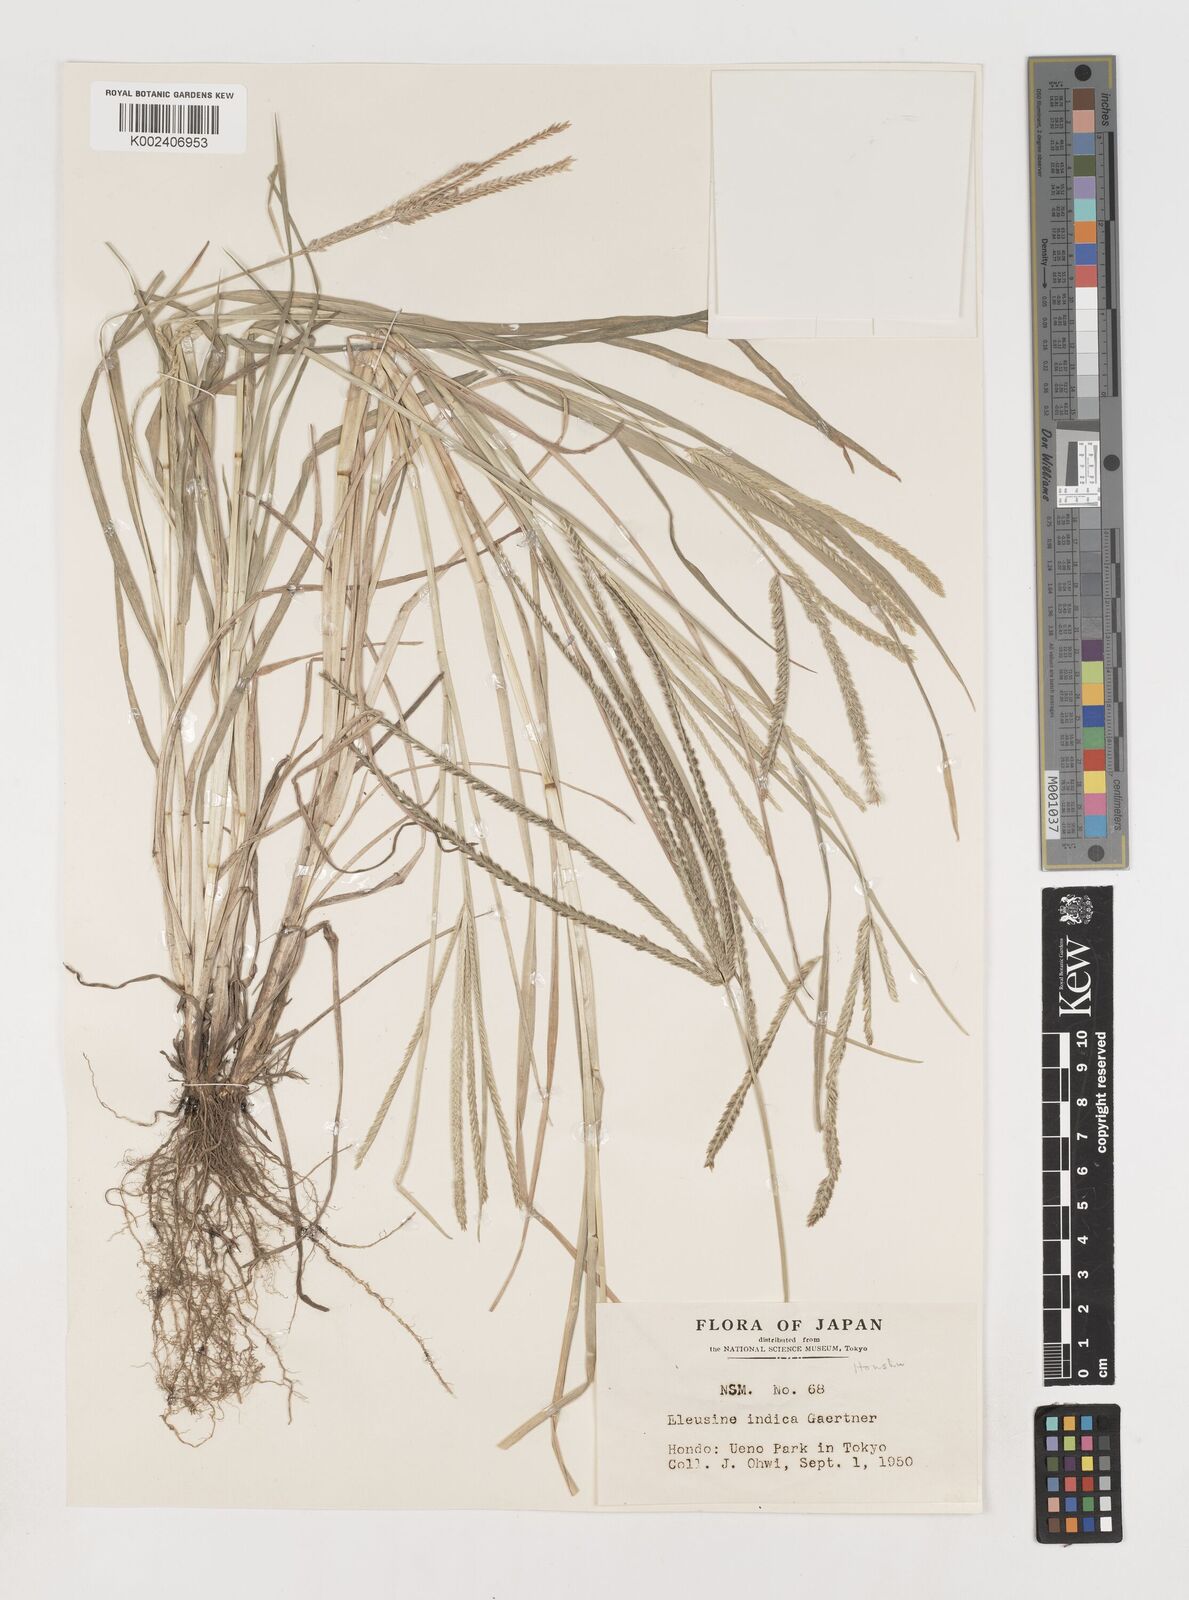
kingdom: Plantae
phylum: Tracheophyta
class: Liliopsida
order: Poales
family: Poaceae
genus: Eleusine
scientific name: Eleusine indica
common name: Yard-grass
